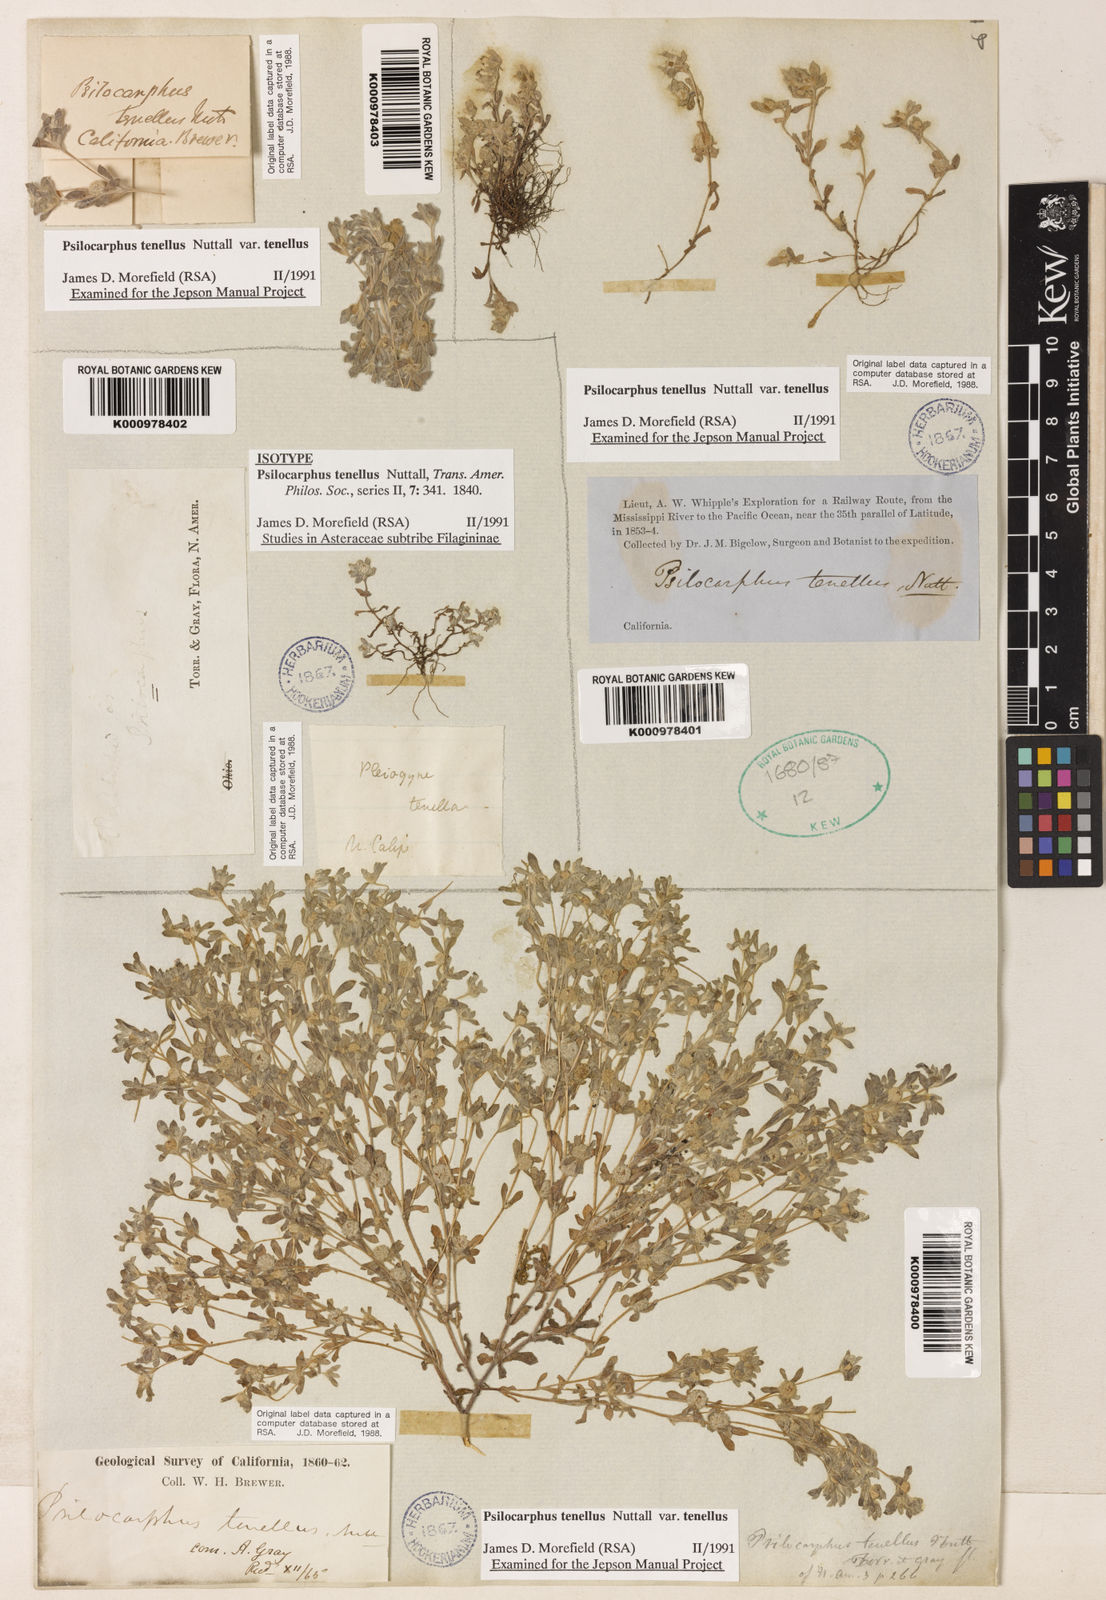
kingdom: Plantae
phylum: Tracheophyta
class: Magnoliopsida
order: Asterales
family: Asteraceae
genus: Psilocarphus
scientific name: Psilocarphus tenellus
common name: Slender woolly-marbles
